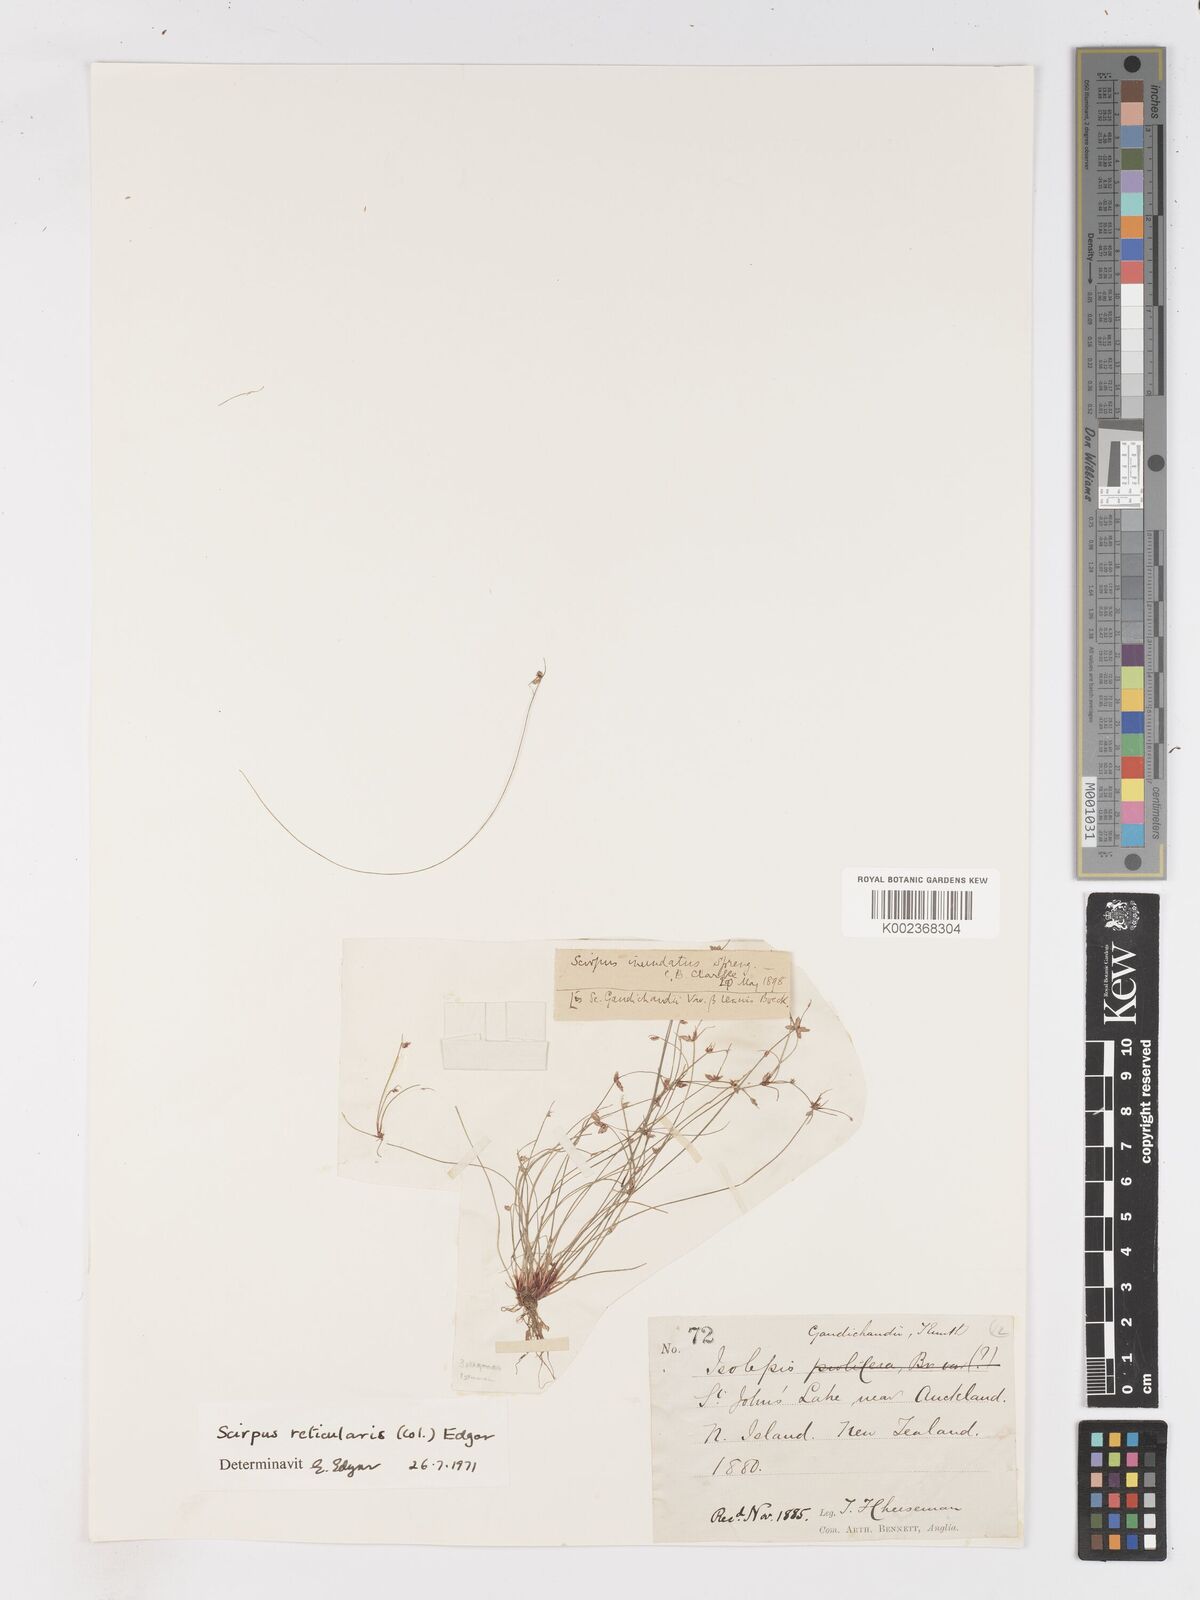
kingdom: Plantae
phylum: Tracheophyta
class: Liliopsida
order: Poales
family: Cyperaceae
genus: Isolepis
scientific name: Isolepis reticularis
